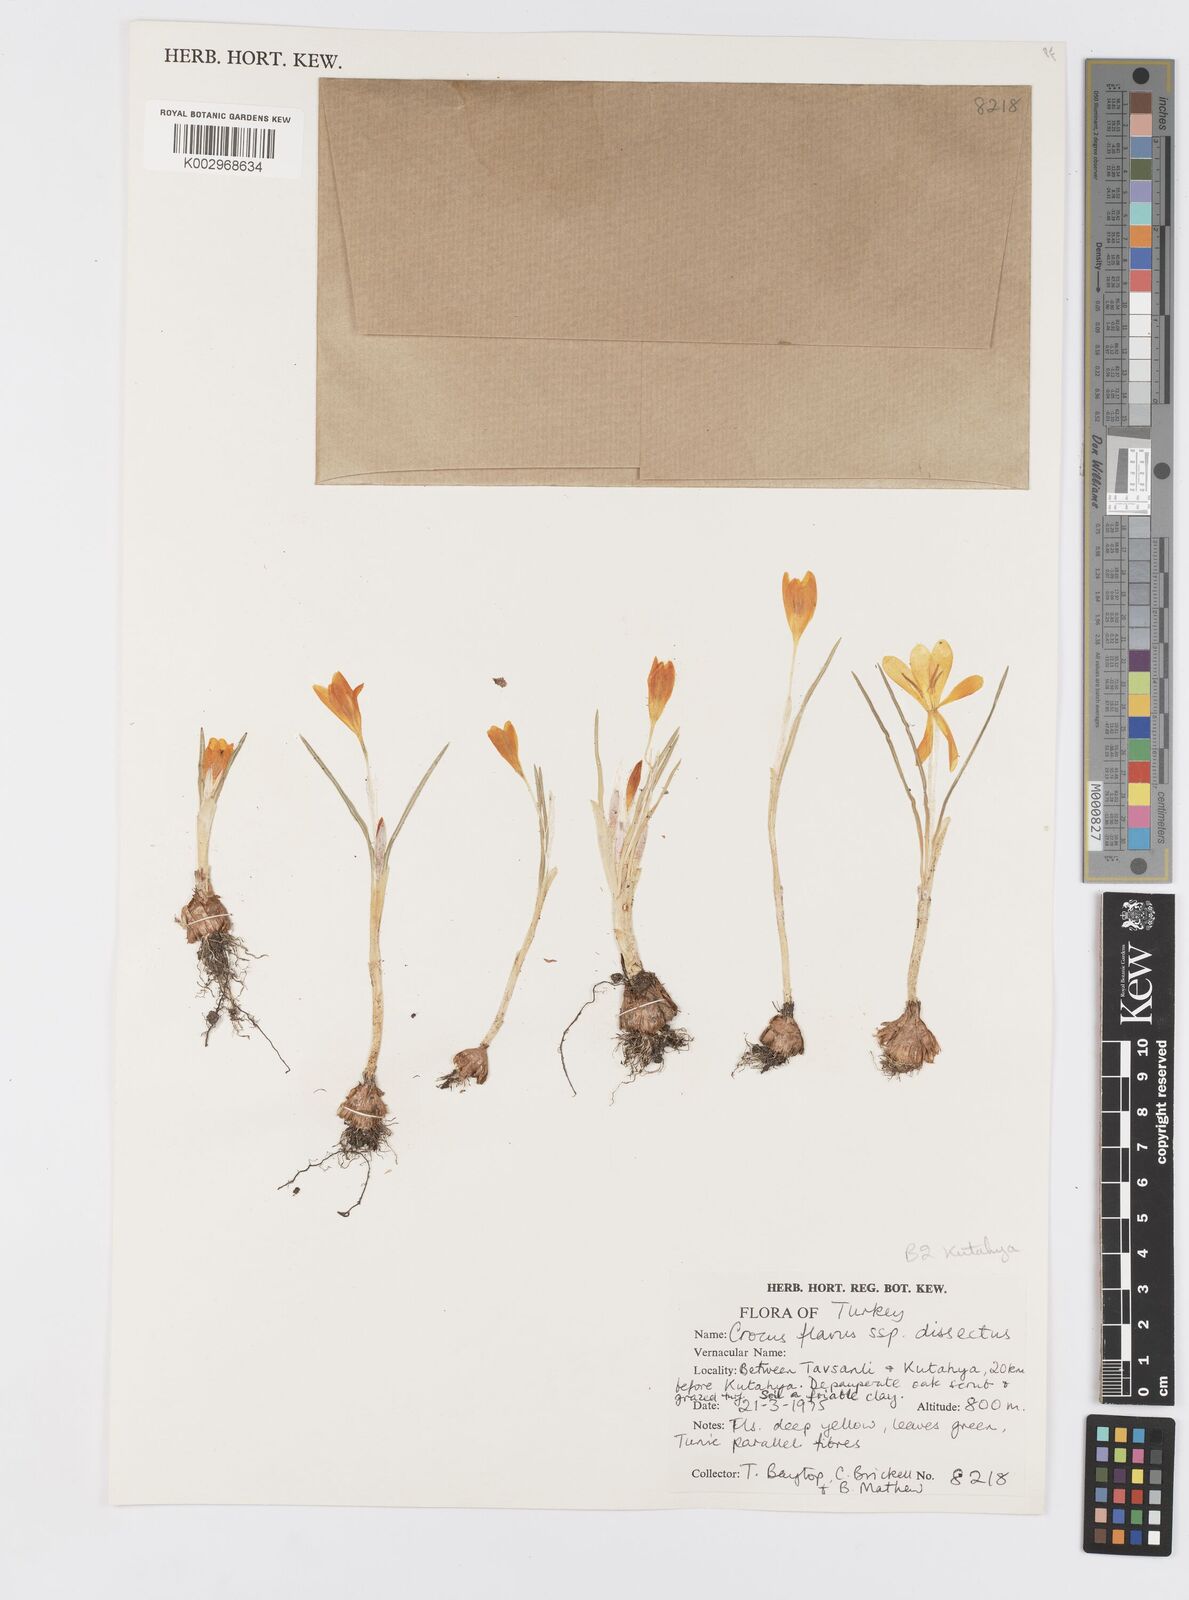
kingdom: Plantae
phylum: Tracheophyta
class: Liliopsida
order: Asparagales
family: Iridaceae
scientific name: Iridaceae
